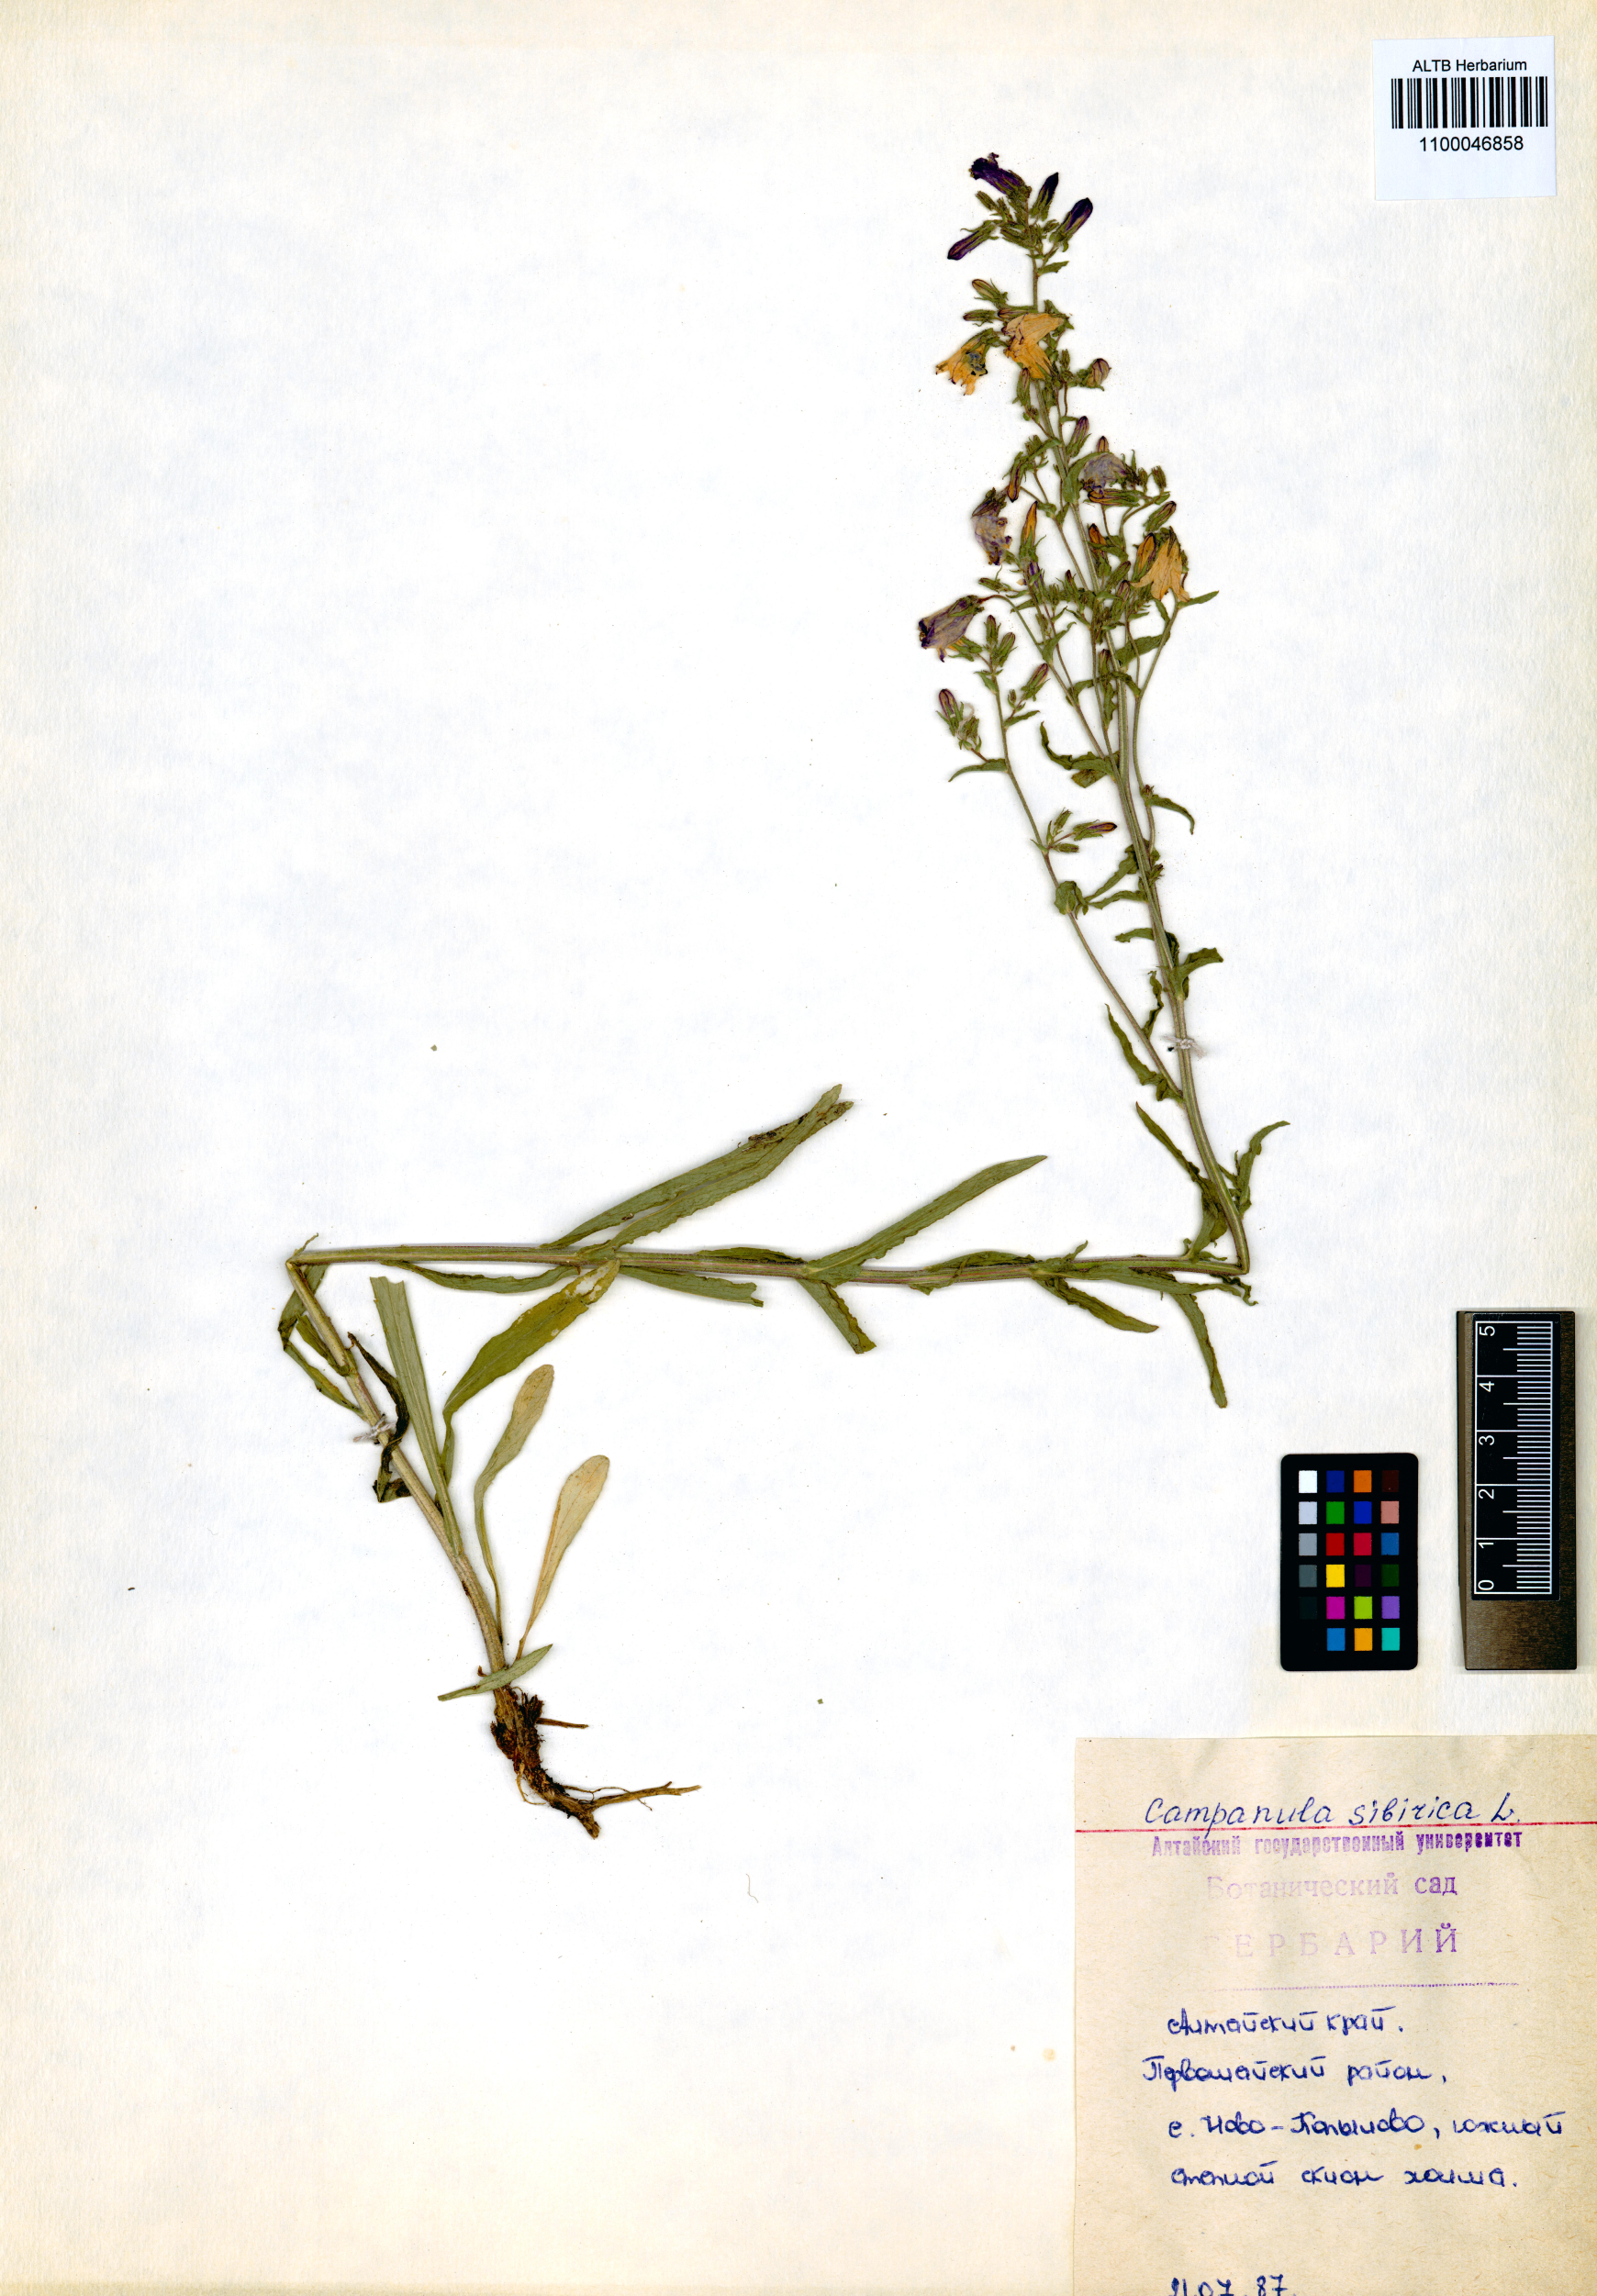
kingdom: Plantae
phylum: Tracheophyta
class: Magnoliopsida
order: Asterales
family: Campanulaceae
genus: Campanula
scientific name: Campanula sibirica
